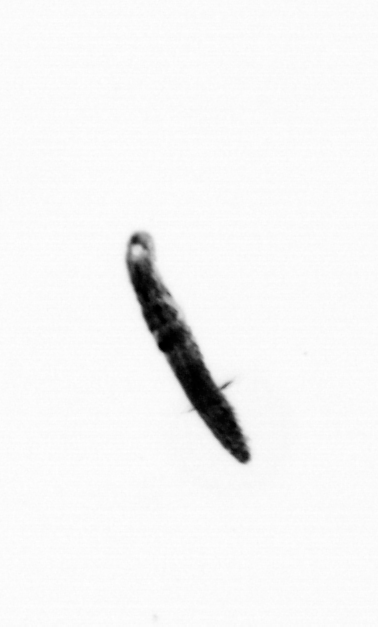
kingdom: Animalia
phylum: Annelida
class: Polychaeta
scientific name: Polychaeta
